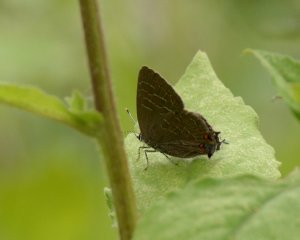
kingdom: Animalia
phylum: Arthropoda
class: Insecta
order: Lepidoptera
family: Lycaenidae
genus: Satyrium
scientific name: Satyrium liparops
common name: Striped Hairstreak
